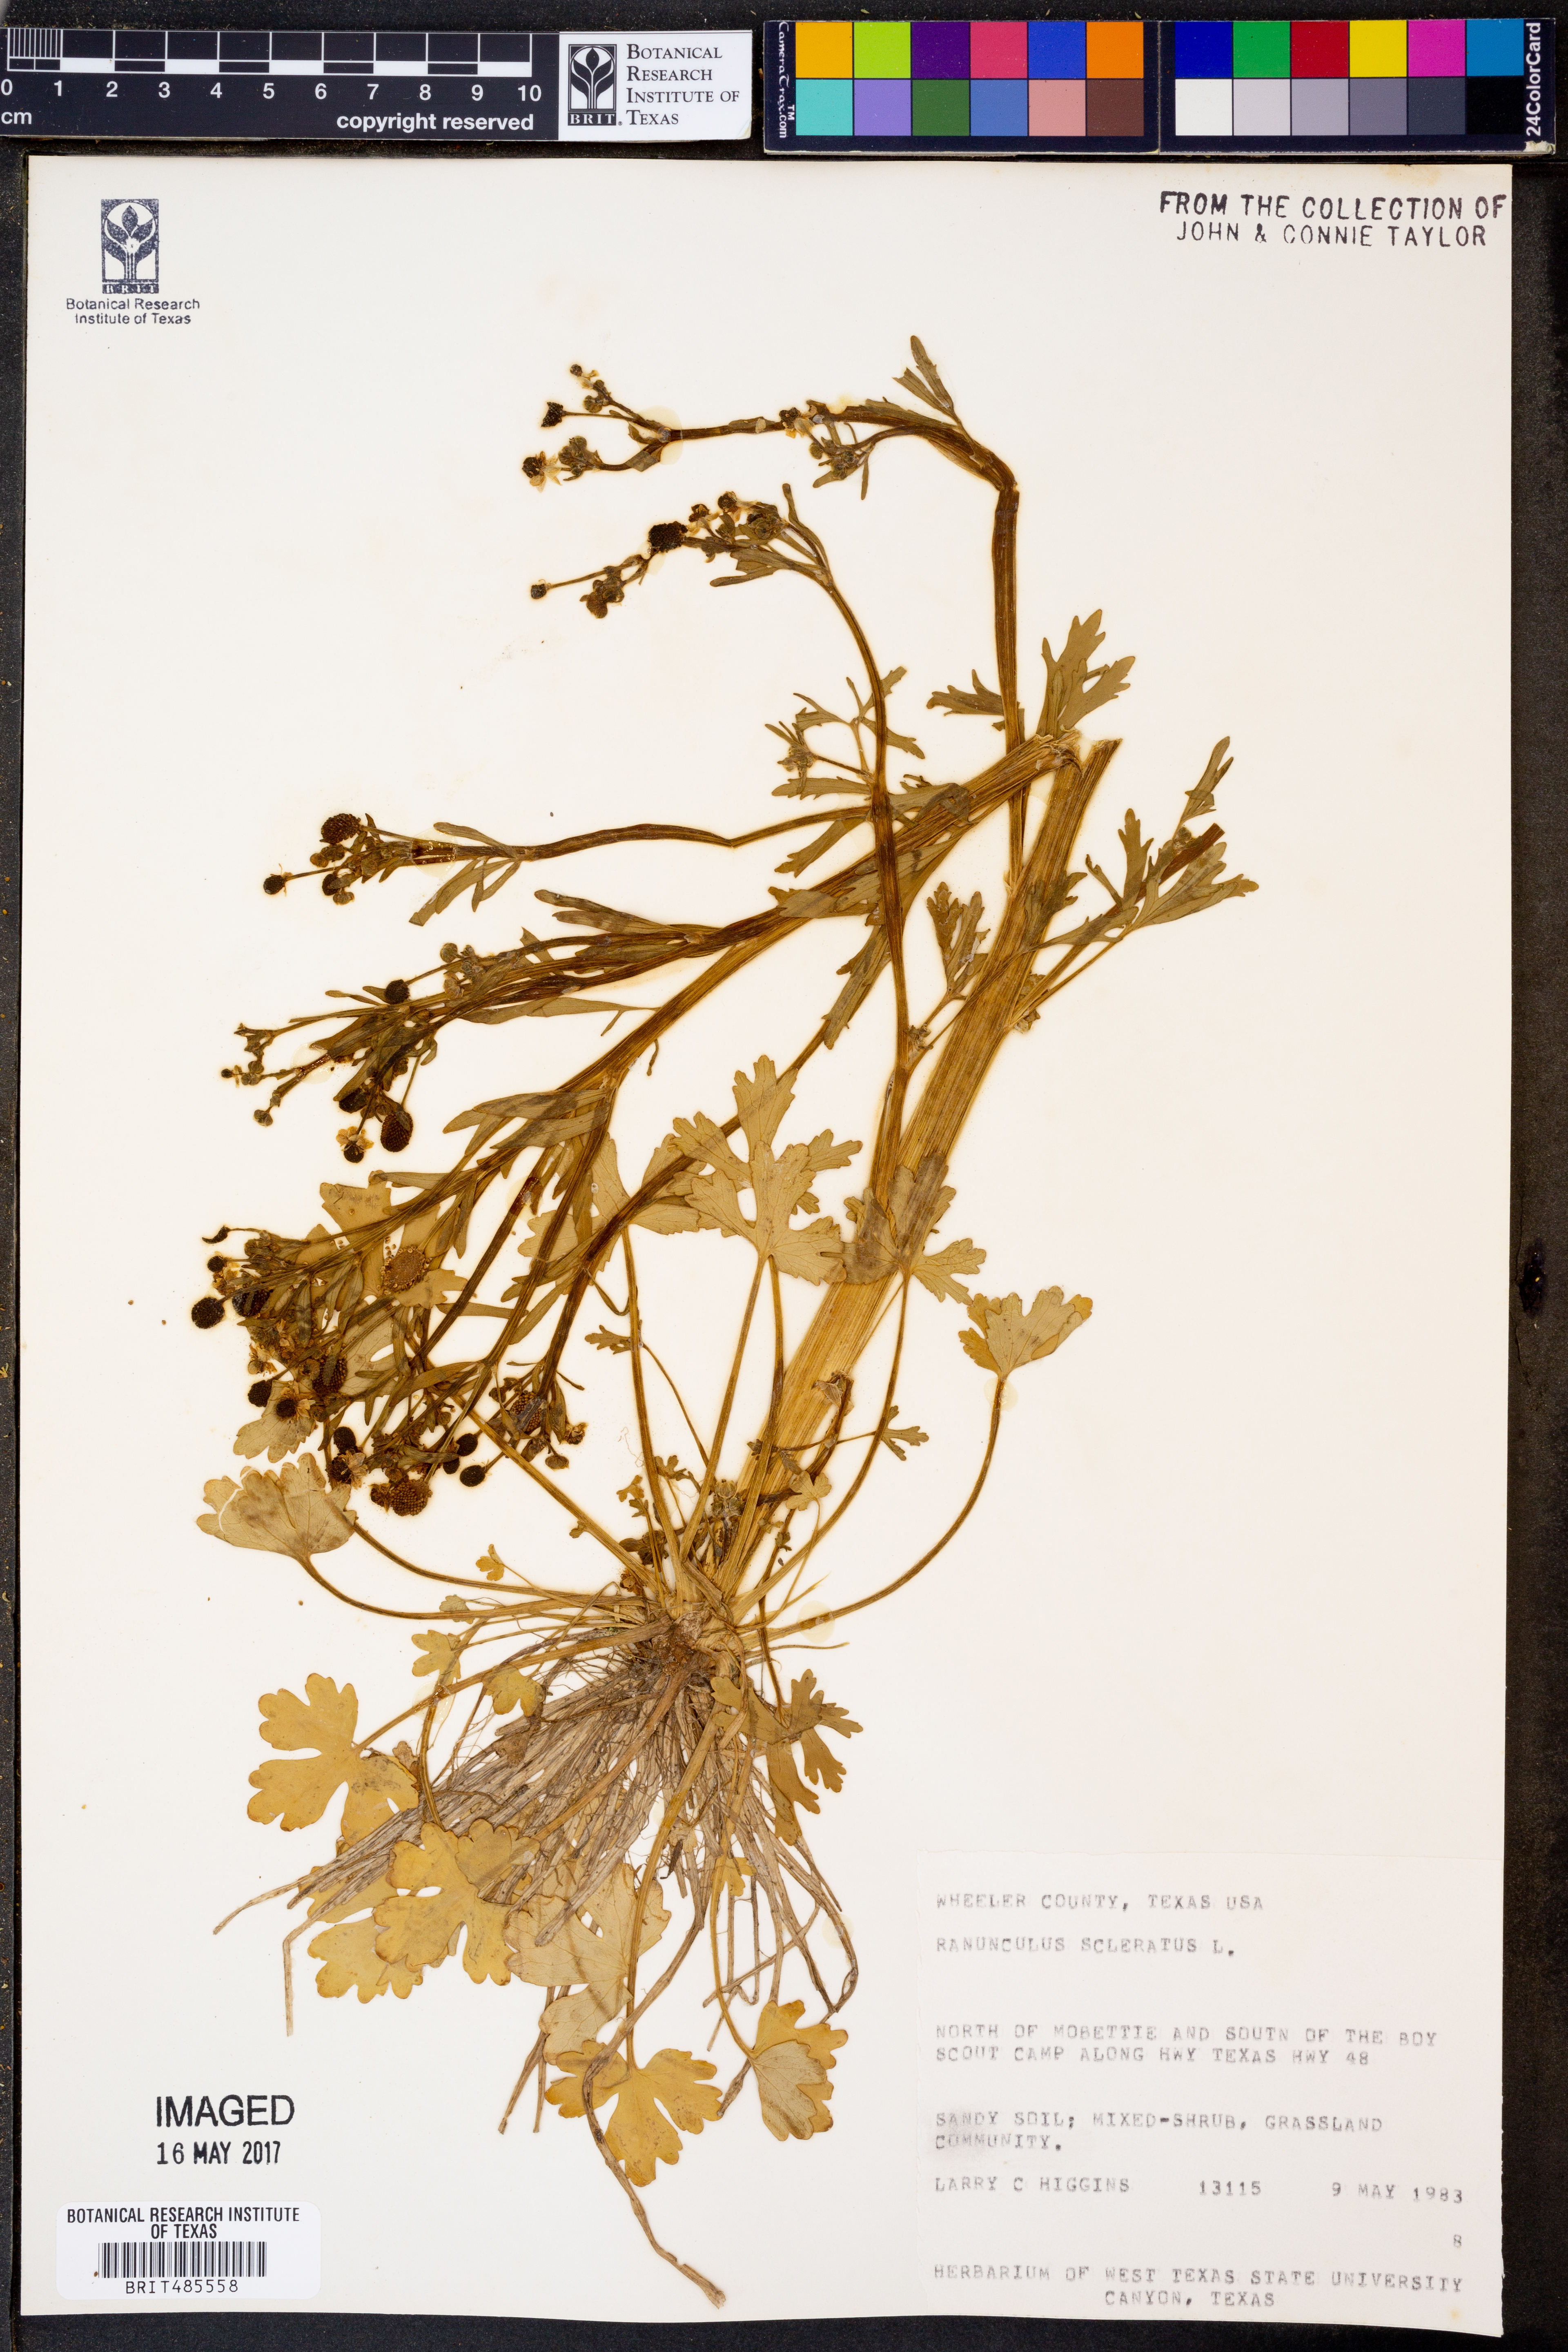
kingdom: Plantae
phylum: Tracheophyta
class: Magnoliopsida
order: Ranunculales
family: Ranunculaceae
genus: Ranunculus
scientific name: Ranunculus sceleratus
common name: Celery-leaved buttercup
